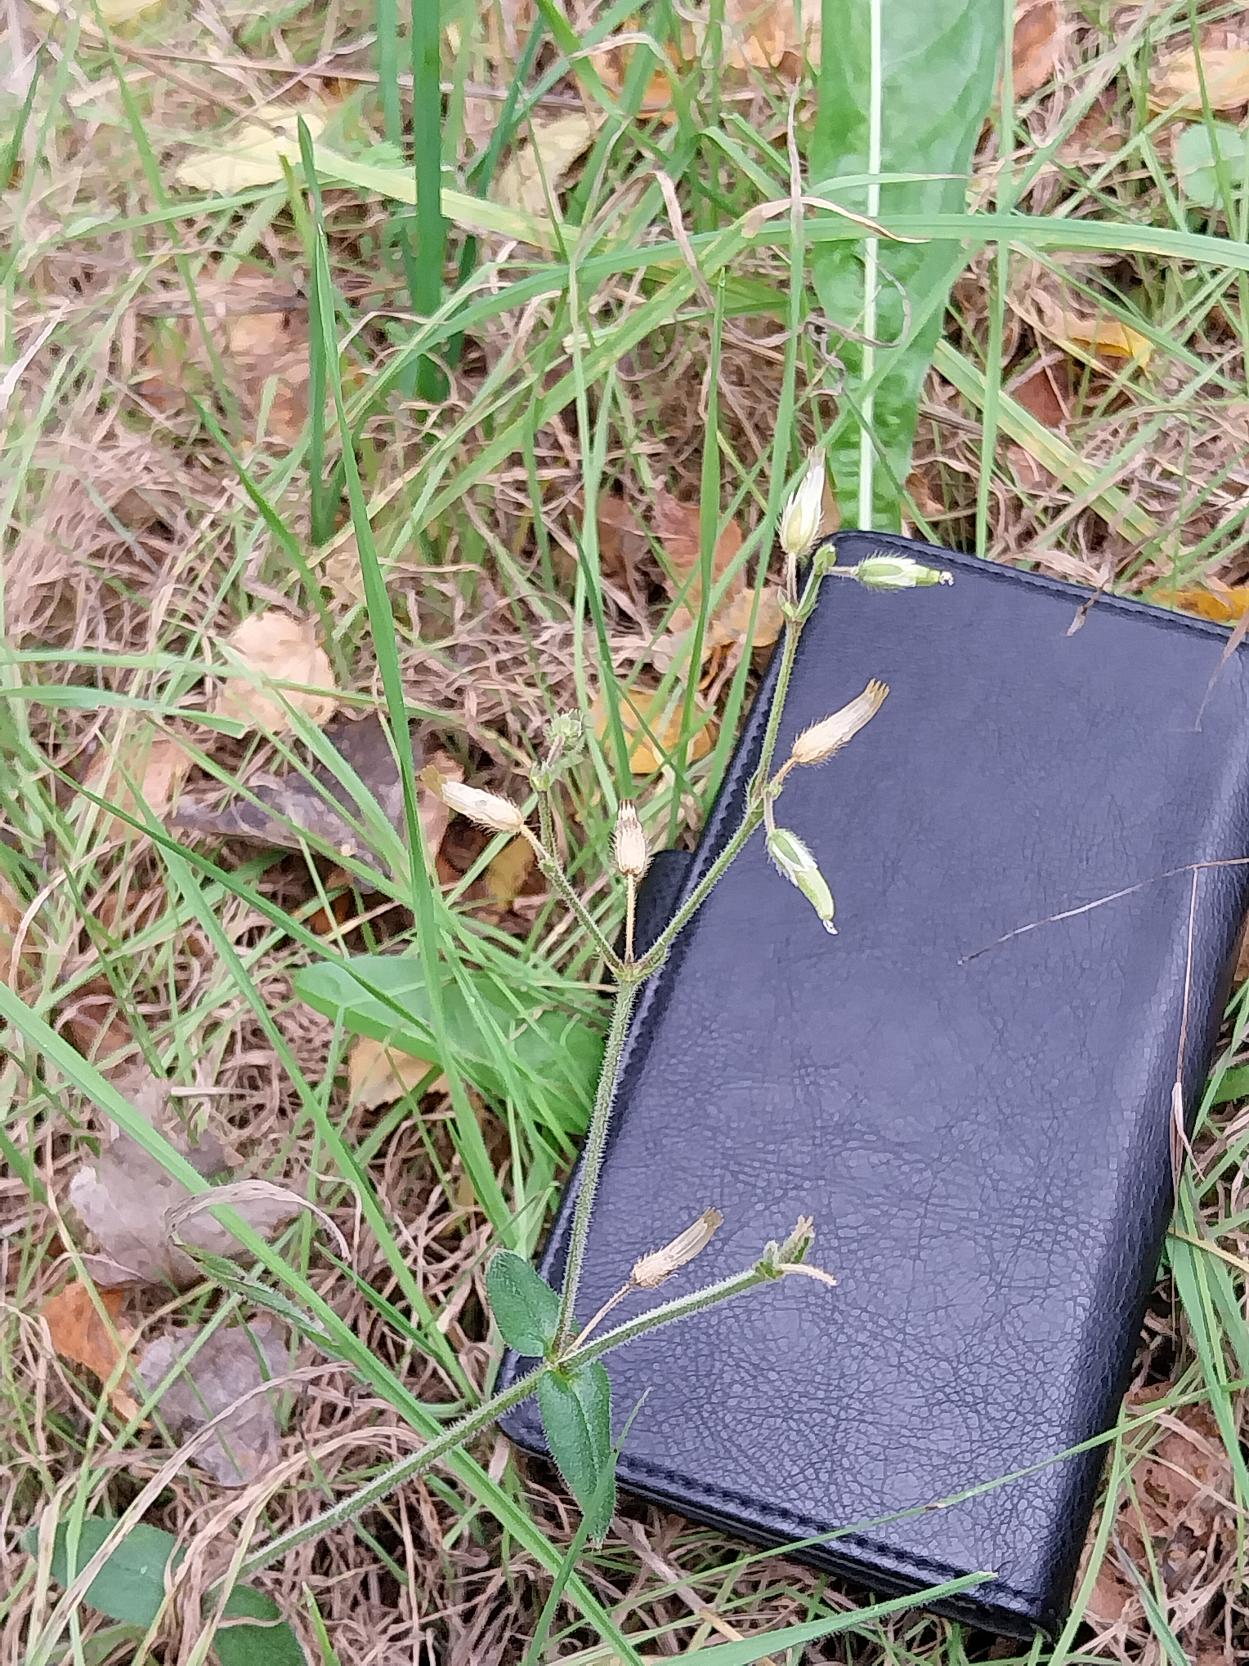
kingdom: Plantae
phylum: Tracheophyta
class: Magnoliopsida
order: Caryophyllales
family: Caryophyllaceae
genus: Cerastium
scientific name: Cerastium fontanum
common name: Almindelig hønsetarm
